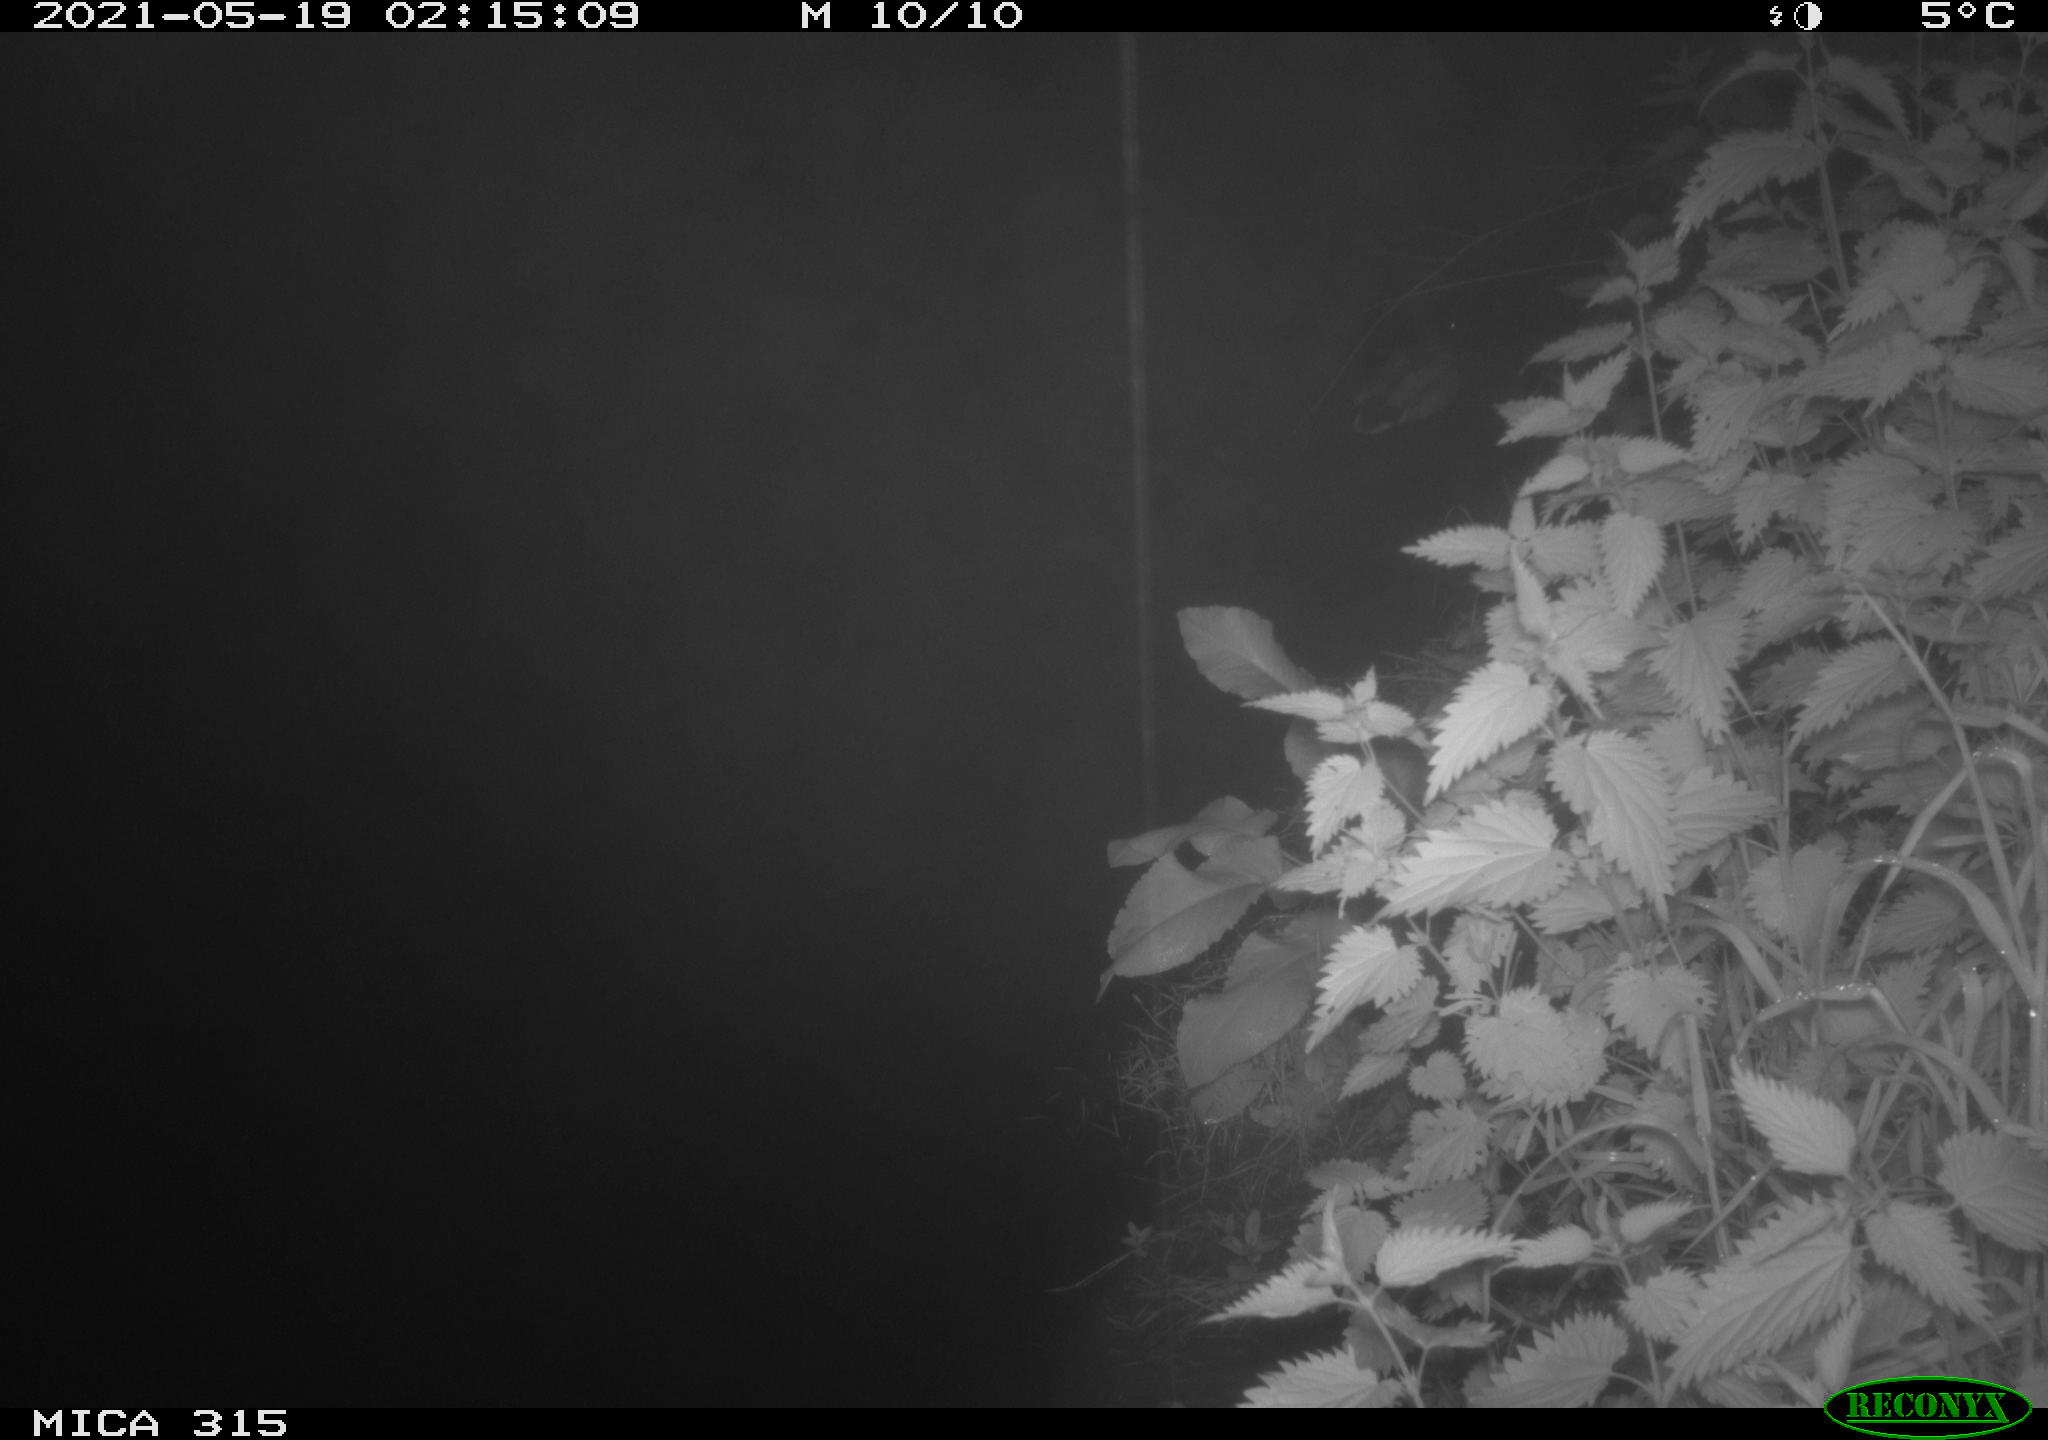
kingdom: Animalia
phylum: Chordata
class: Aves
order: Anseriformes
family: Anatidae
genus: Anas
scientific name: Anas
